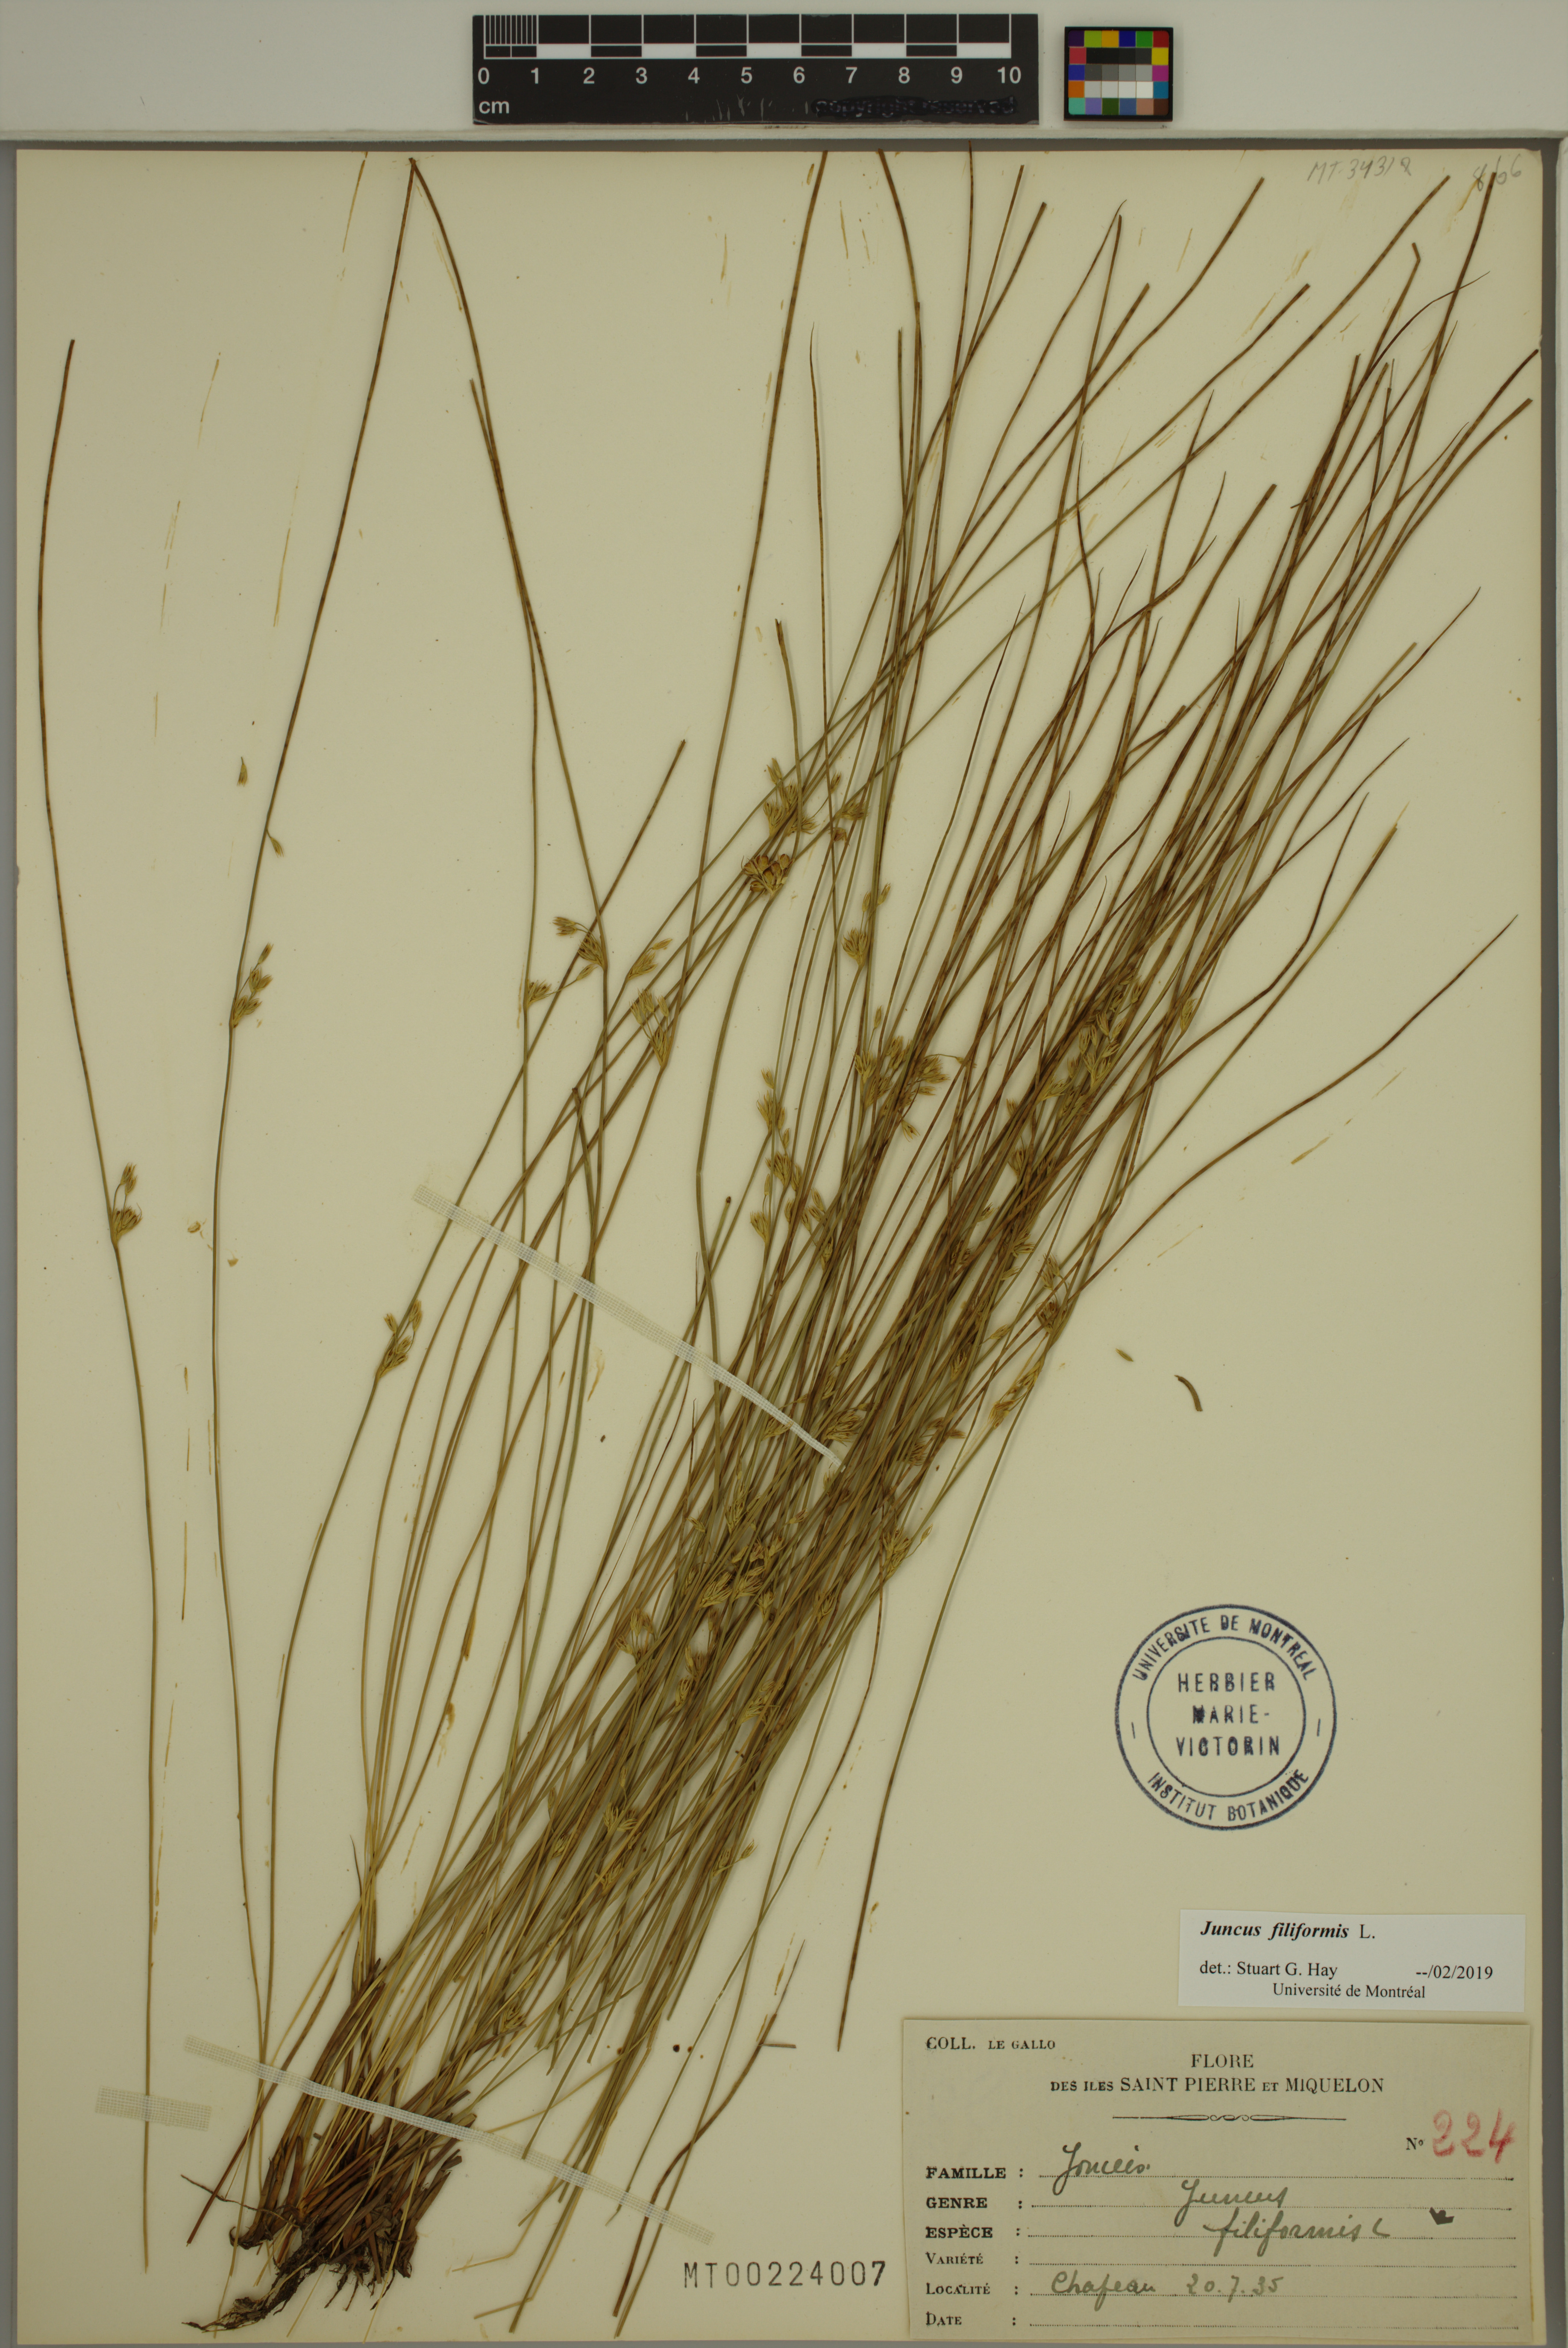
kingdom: Plantae
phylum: Tracheophyta
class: Liliopsida
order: Poales
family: Juncaceae
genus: Juncus
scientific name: Juncus filiformis
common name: Thread rush
